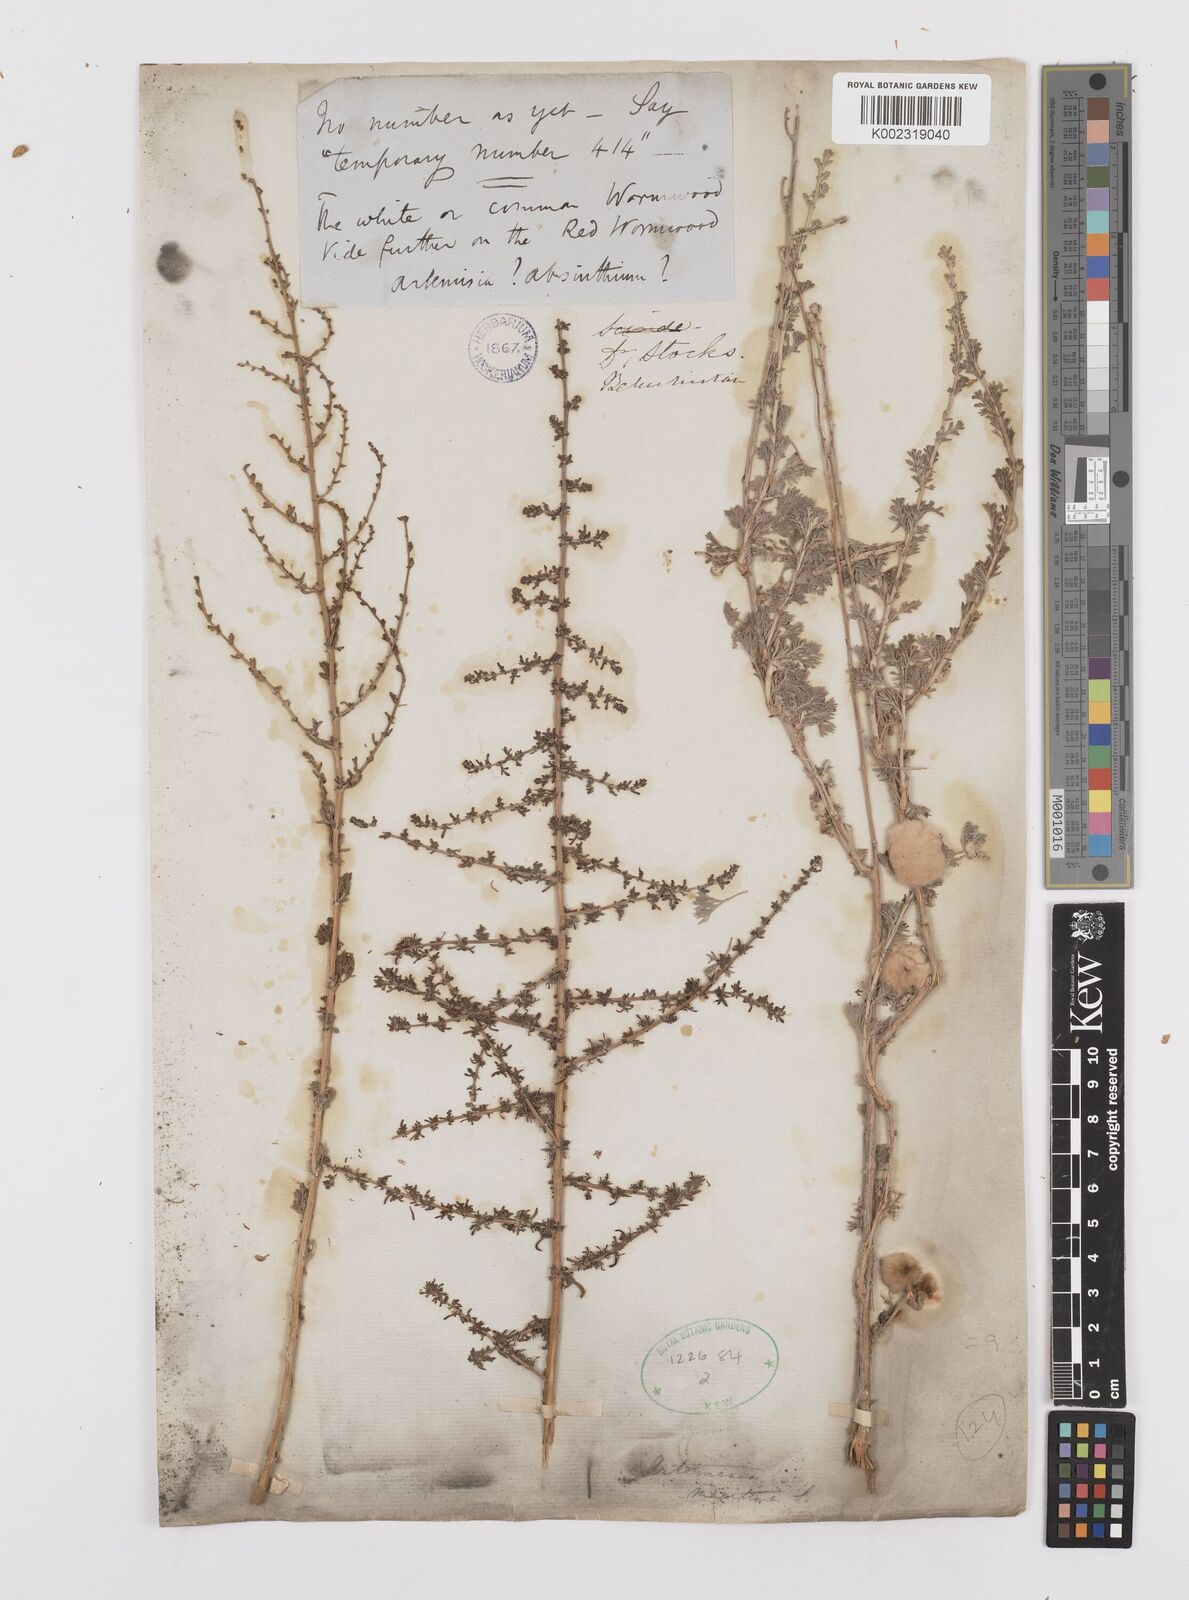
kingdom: Plantae
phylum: Tracheophyta
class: Magnoliopsida
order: Asterales
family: Asteraceae
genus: Artemisia
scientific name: Artemisia brevifolia
